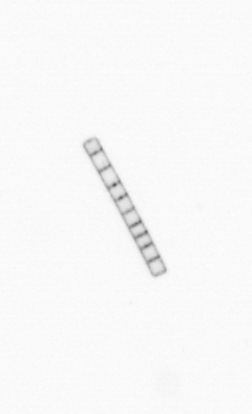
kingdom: Chromista
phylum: Ochrophyta
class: Bacillariophyceae
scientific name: Bacillariophyceae
